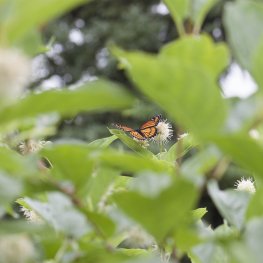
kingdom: Animalia
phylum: Arthropoda
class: Insecta
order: Lepidoptera
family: Nymphalidae
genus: Limenitis
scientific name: Limenitis archippus
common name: Viceroy
